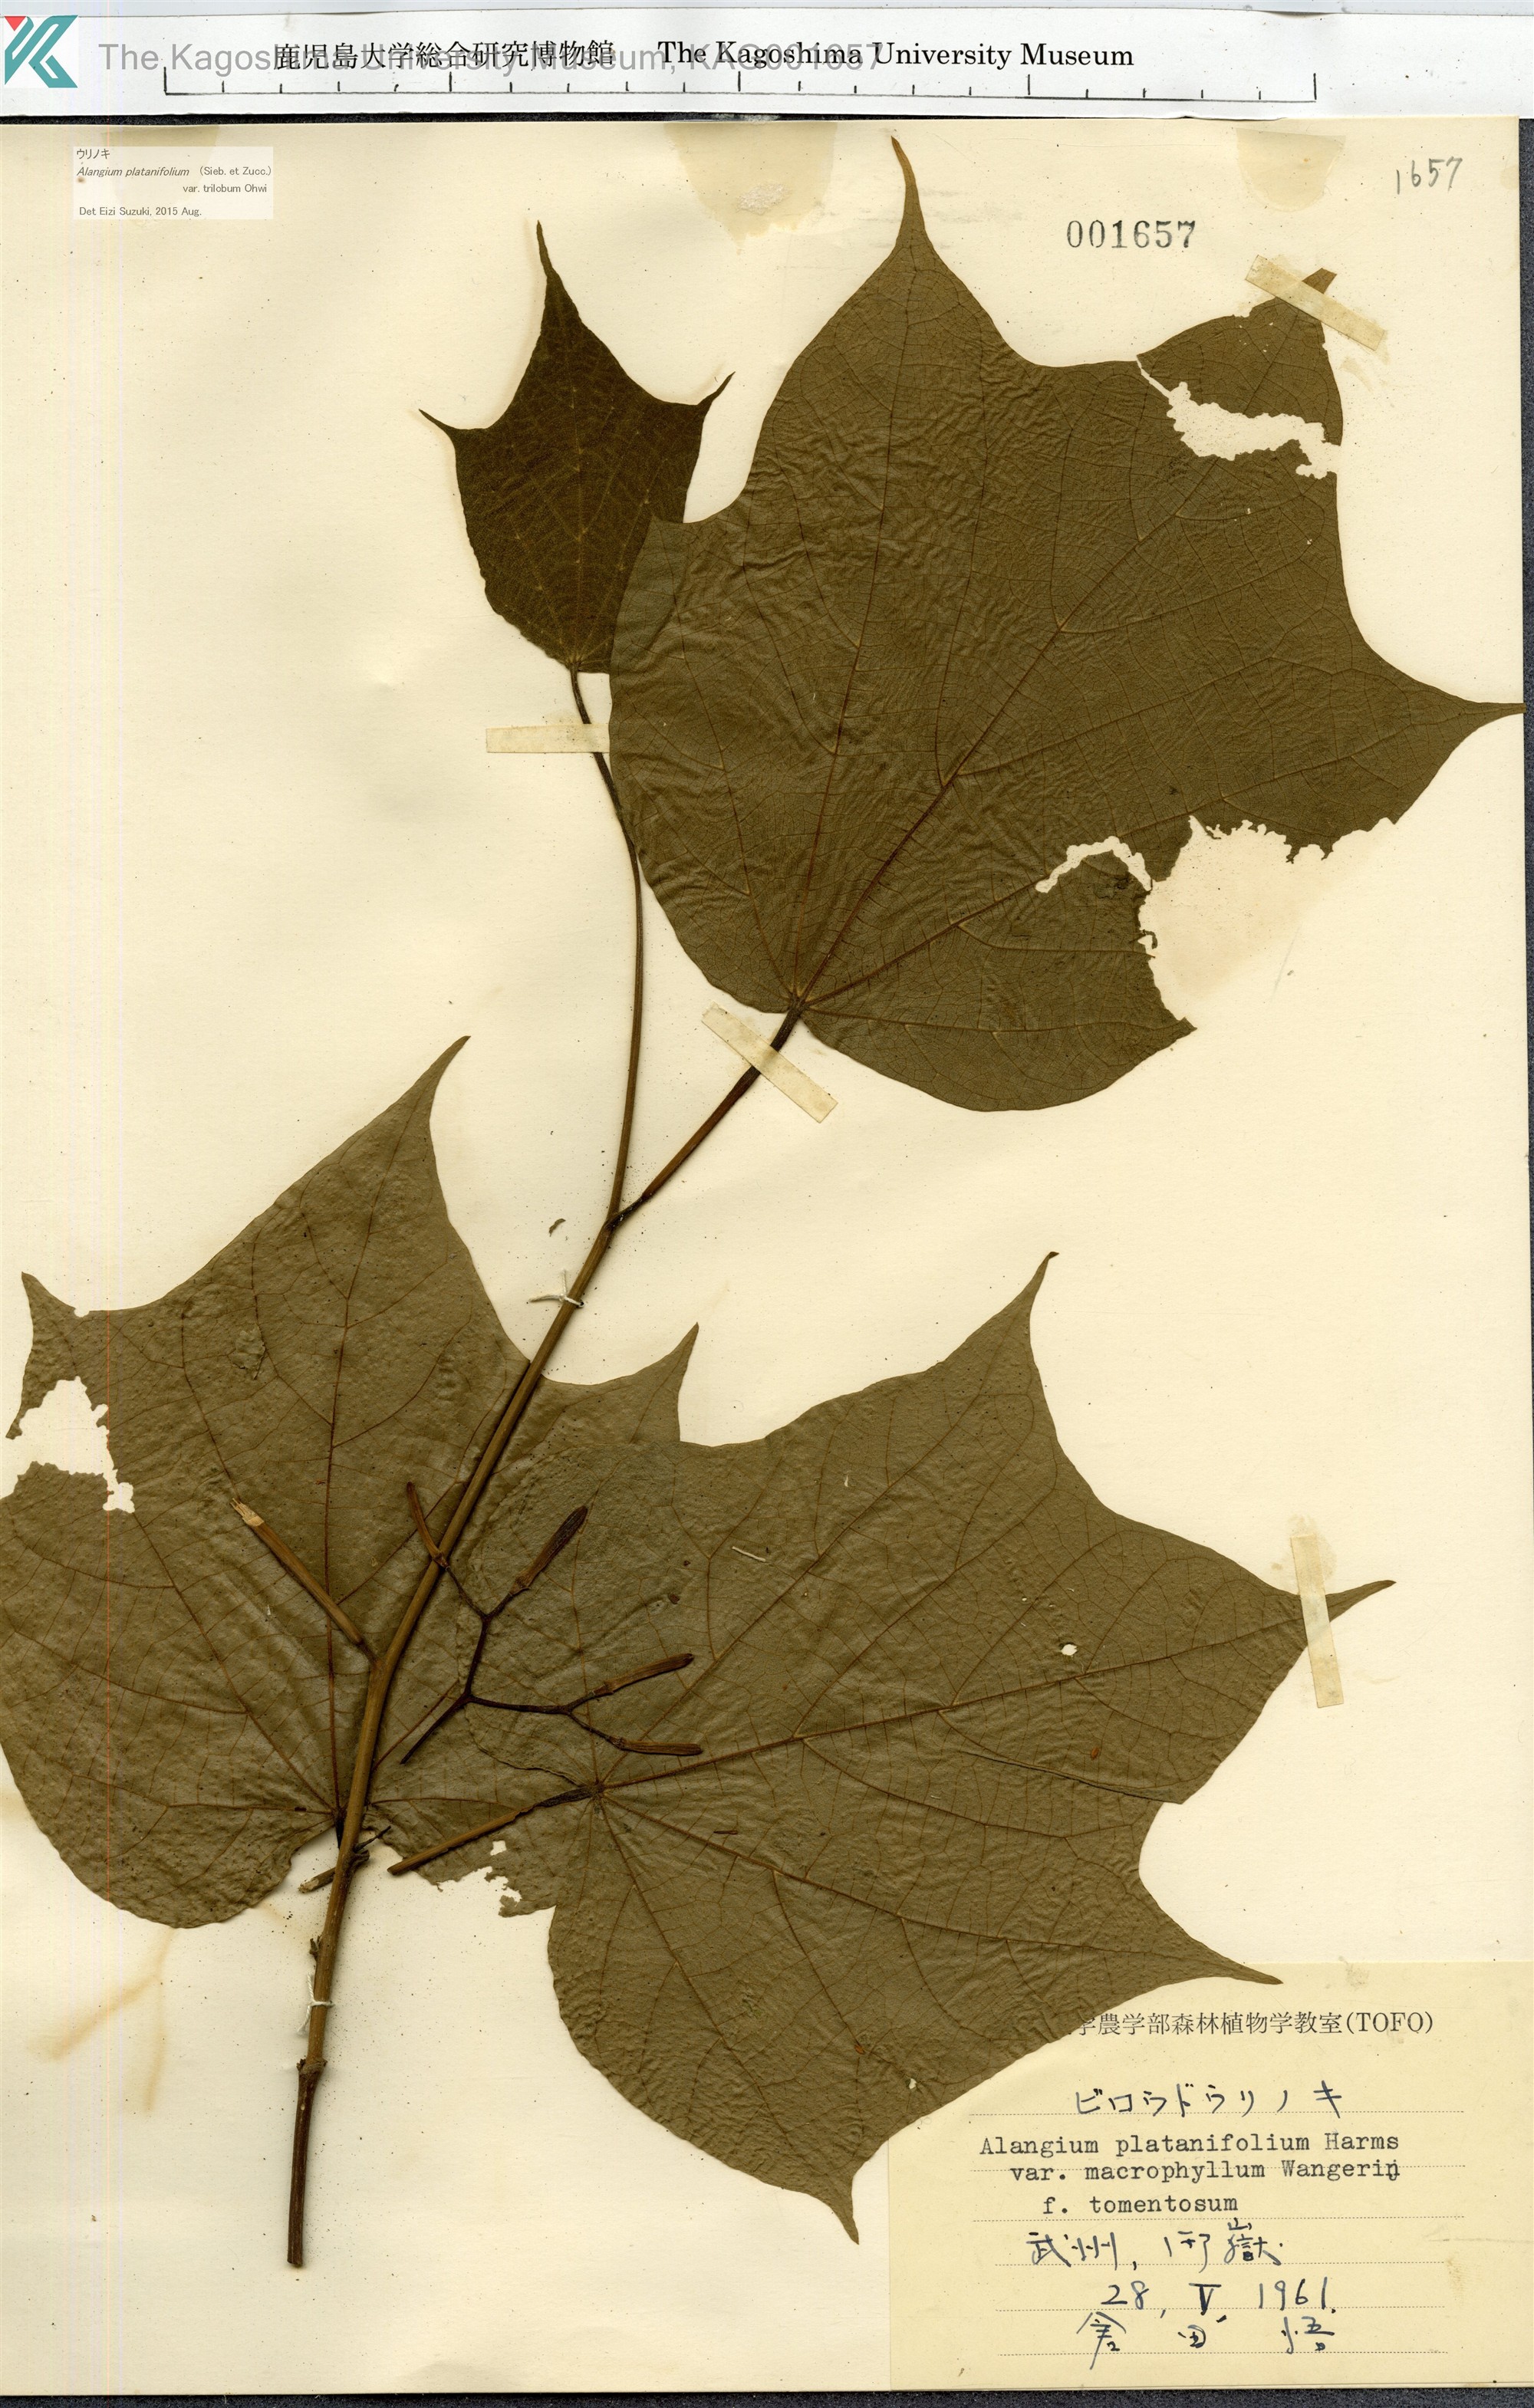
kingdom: Plantae
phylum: Tracheophyta
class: Magnoliopsida
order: Cornales
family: Cornaceae
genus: Alangium
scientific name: Alangium platanifolium
